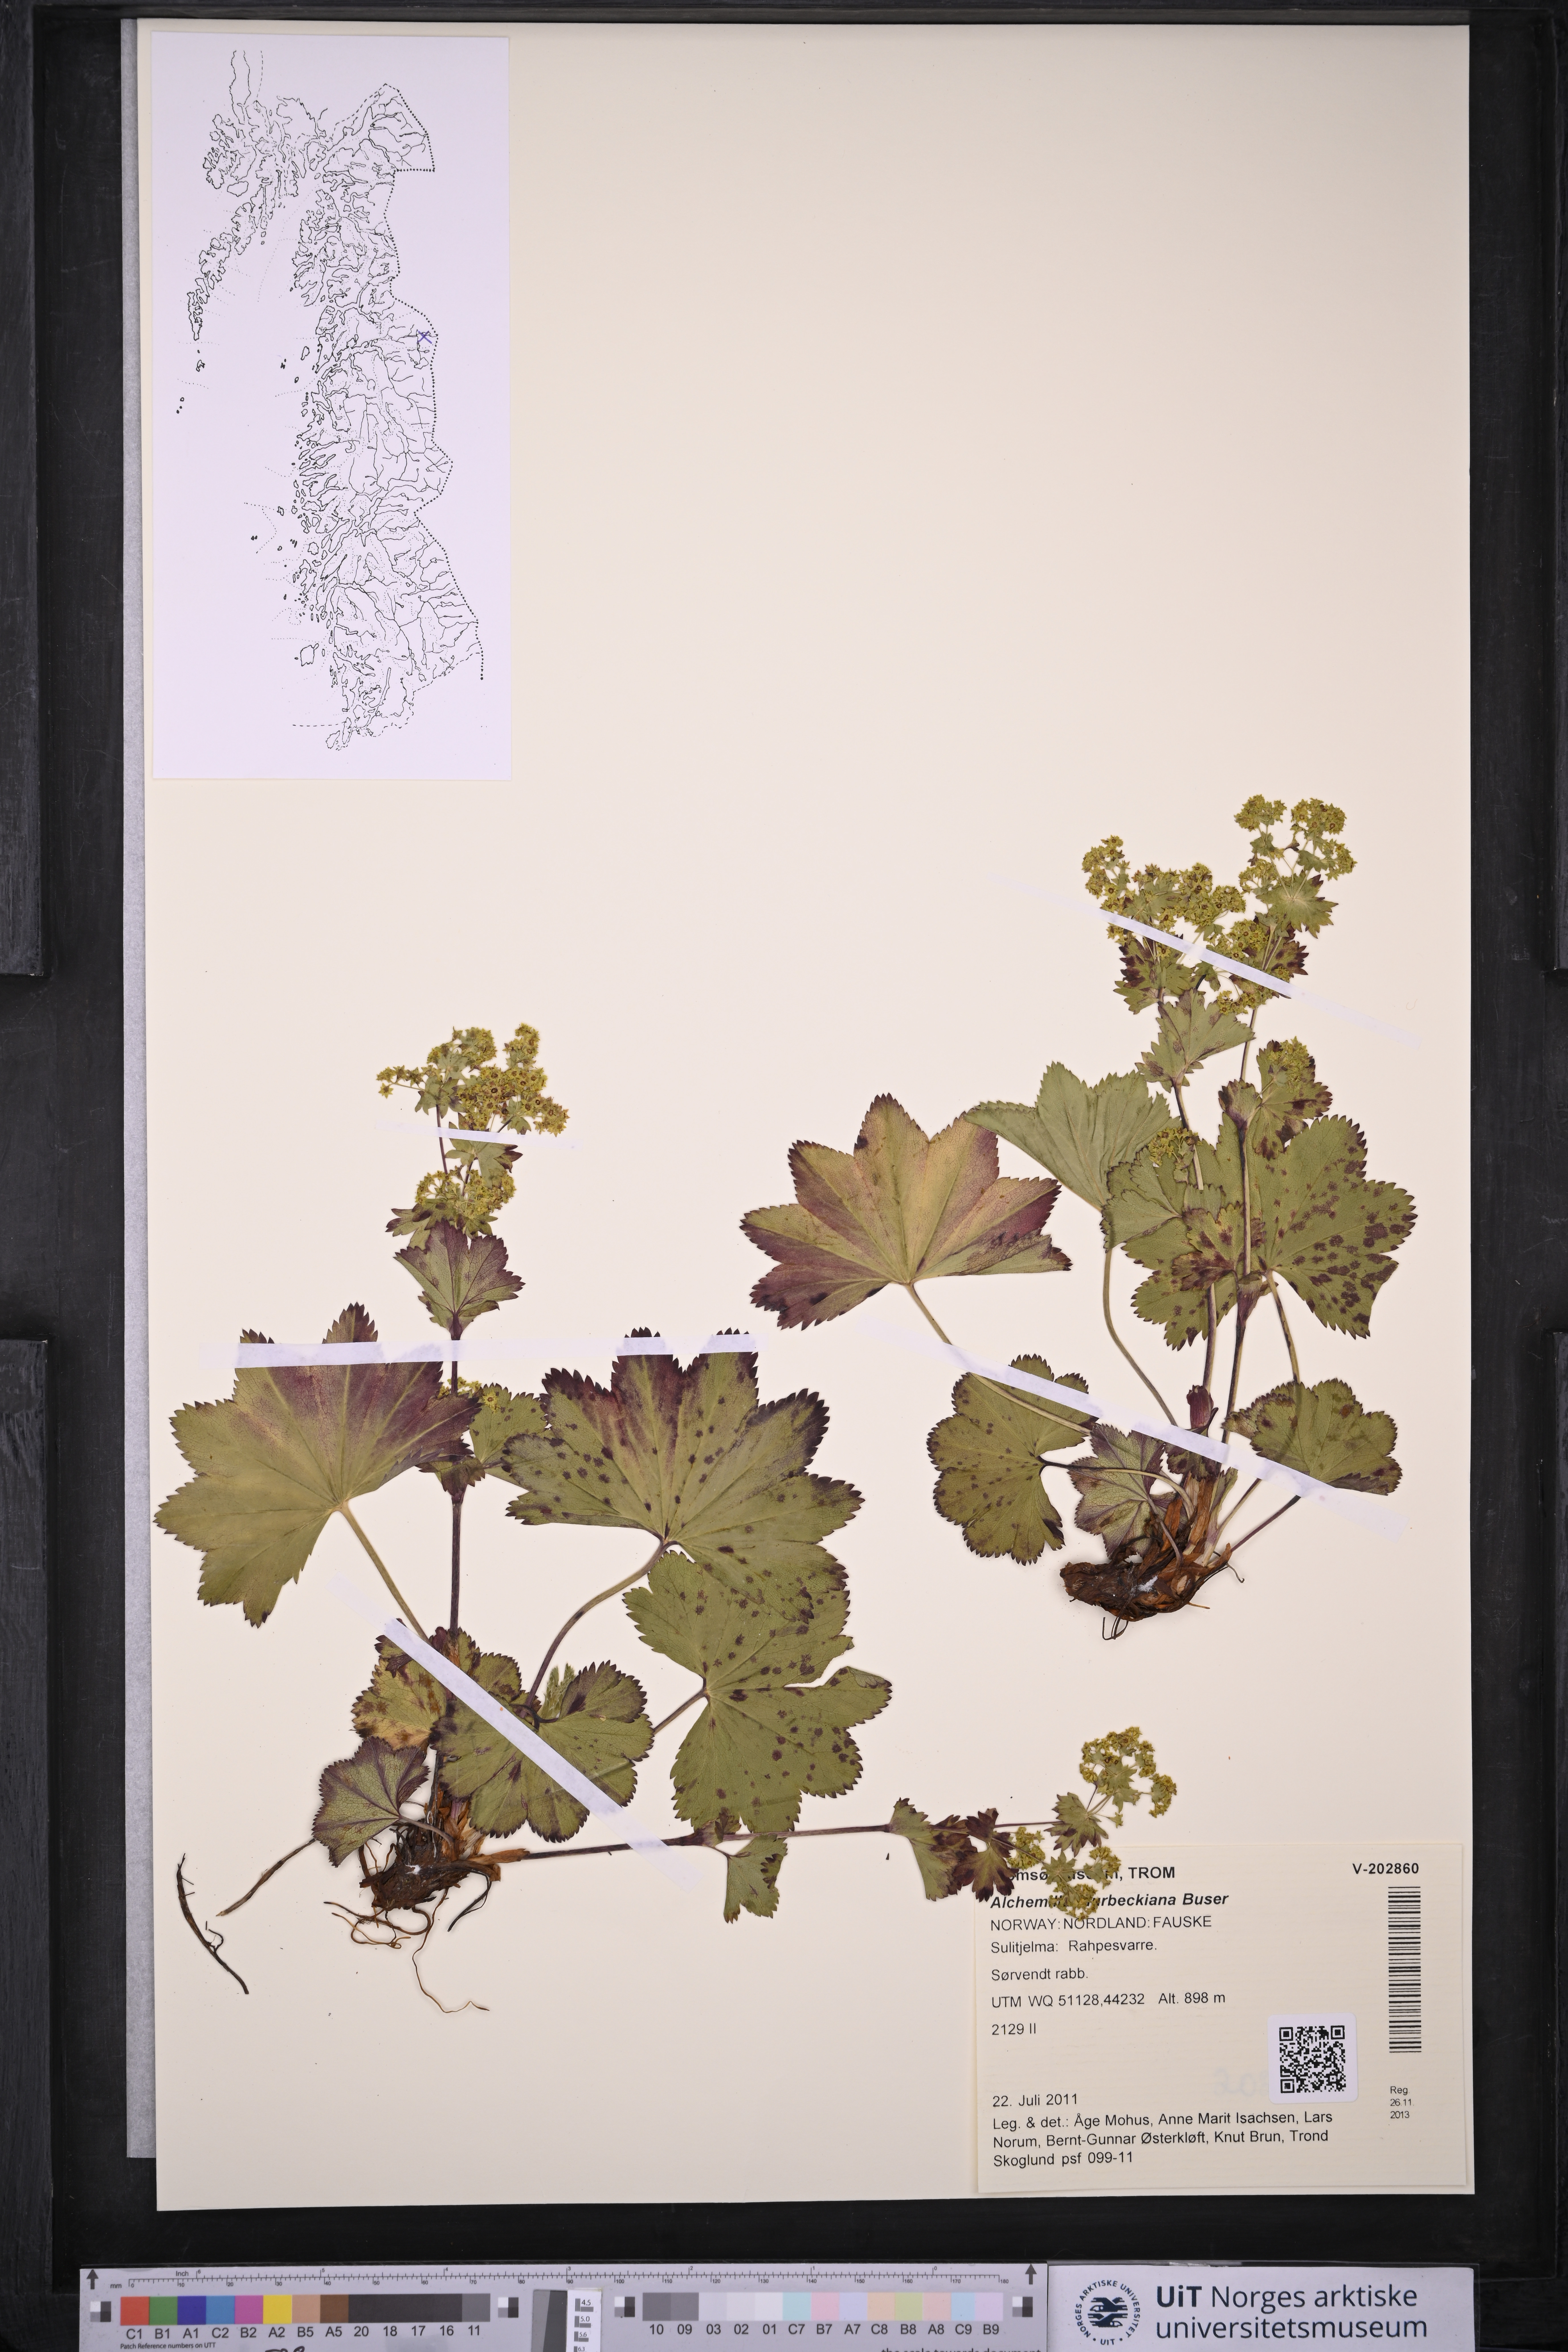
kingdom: Plantae
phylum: Tracheophyta
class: Magnoliopsida
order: Rosales
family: Rosaceae
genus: Alchemilla
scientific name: Alchemilla murbeckiana
